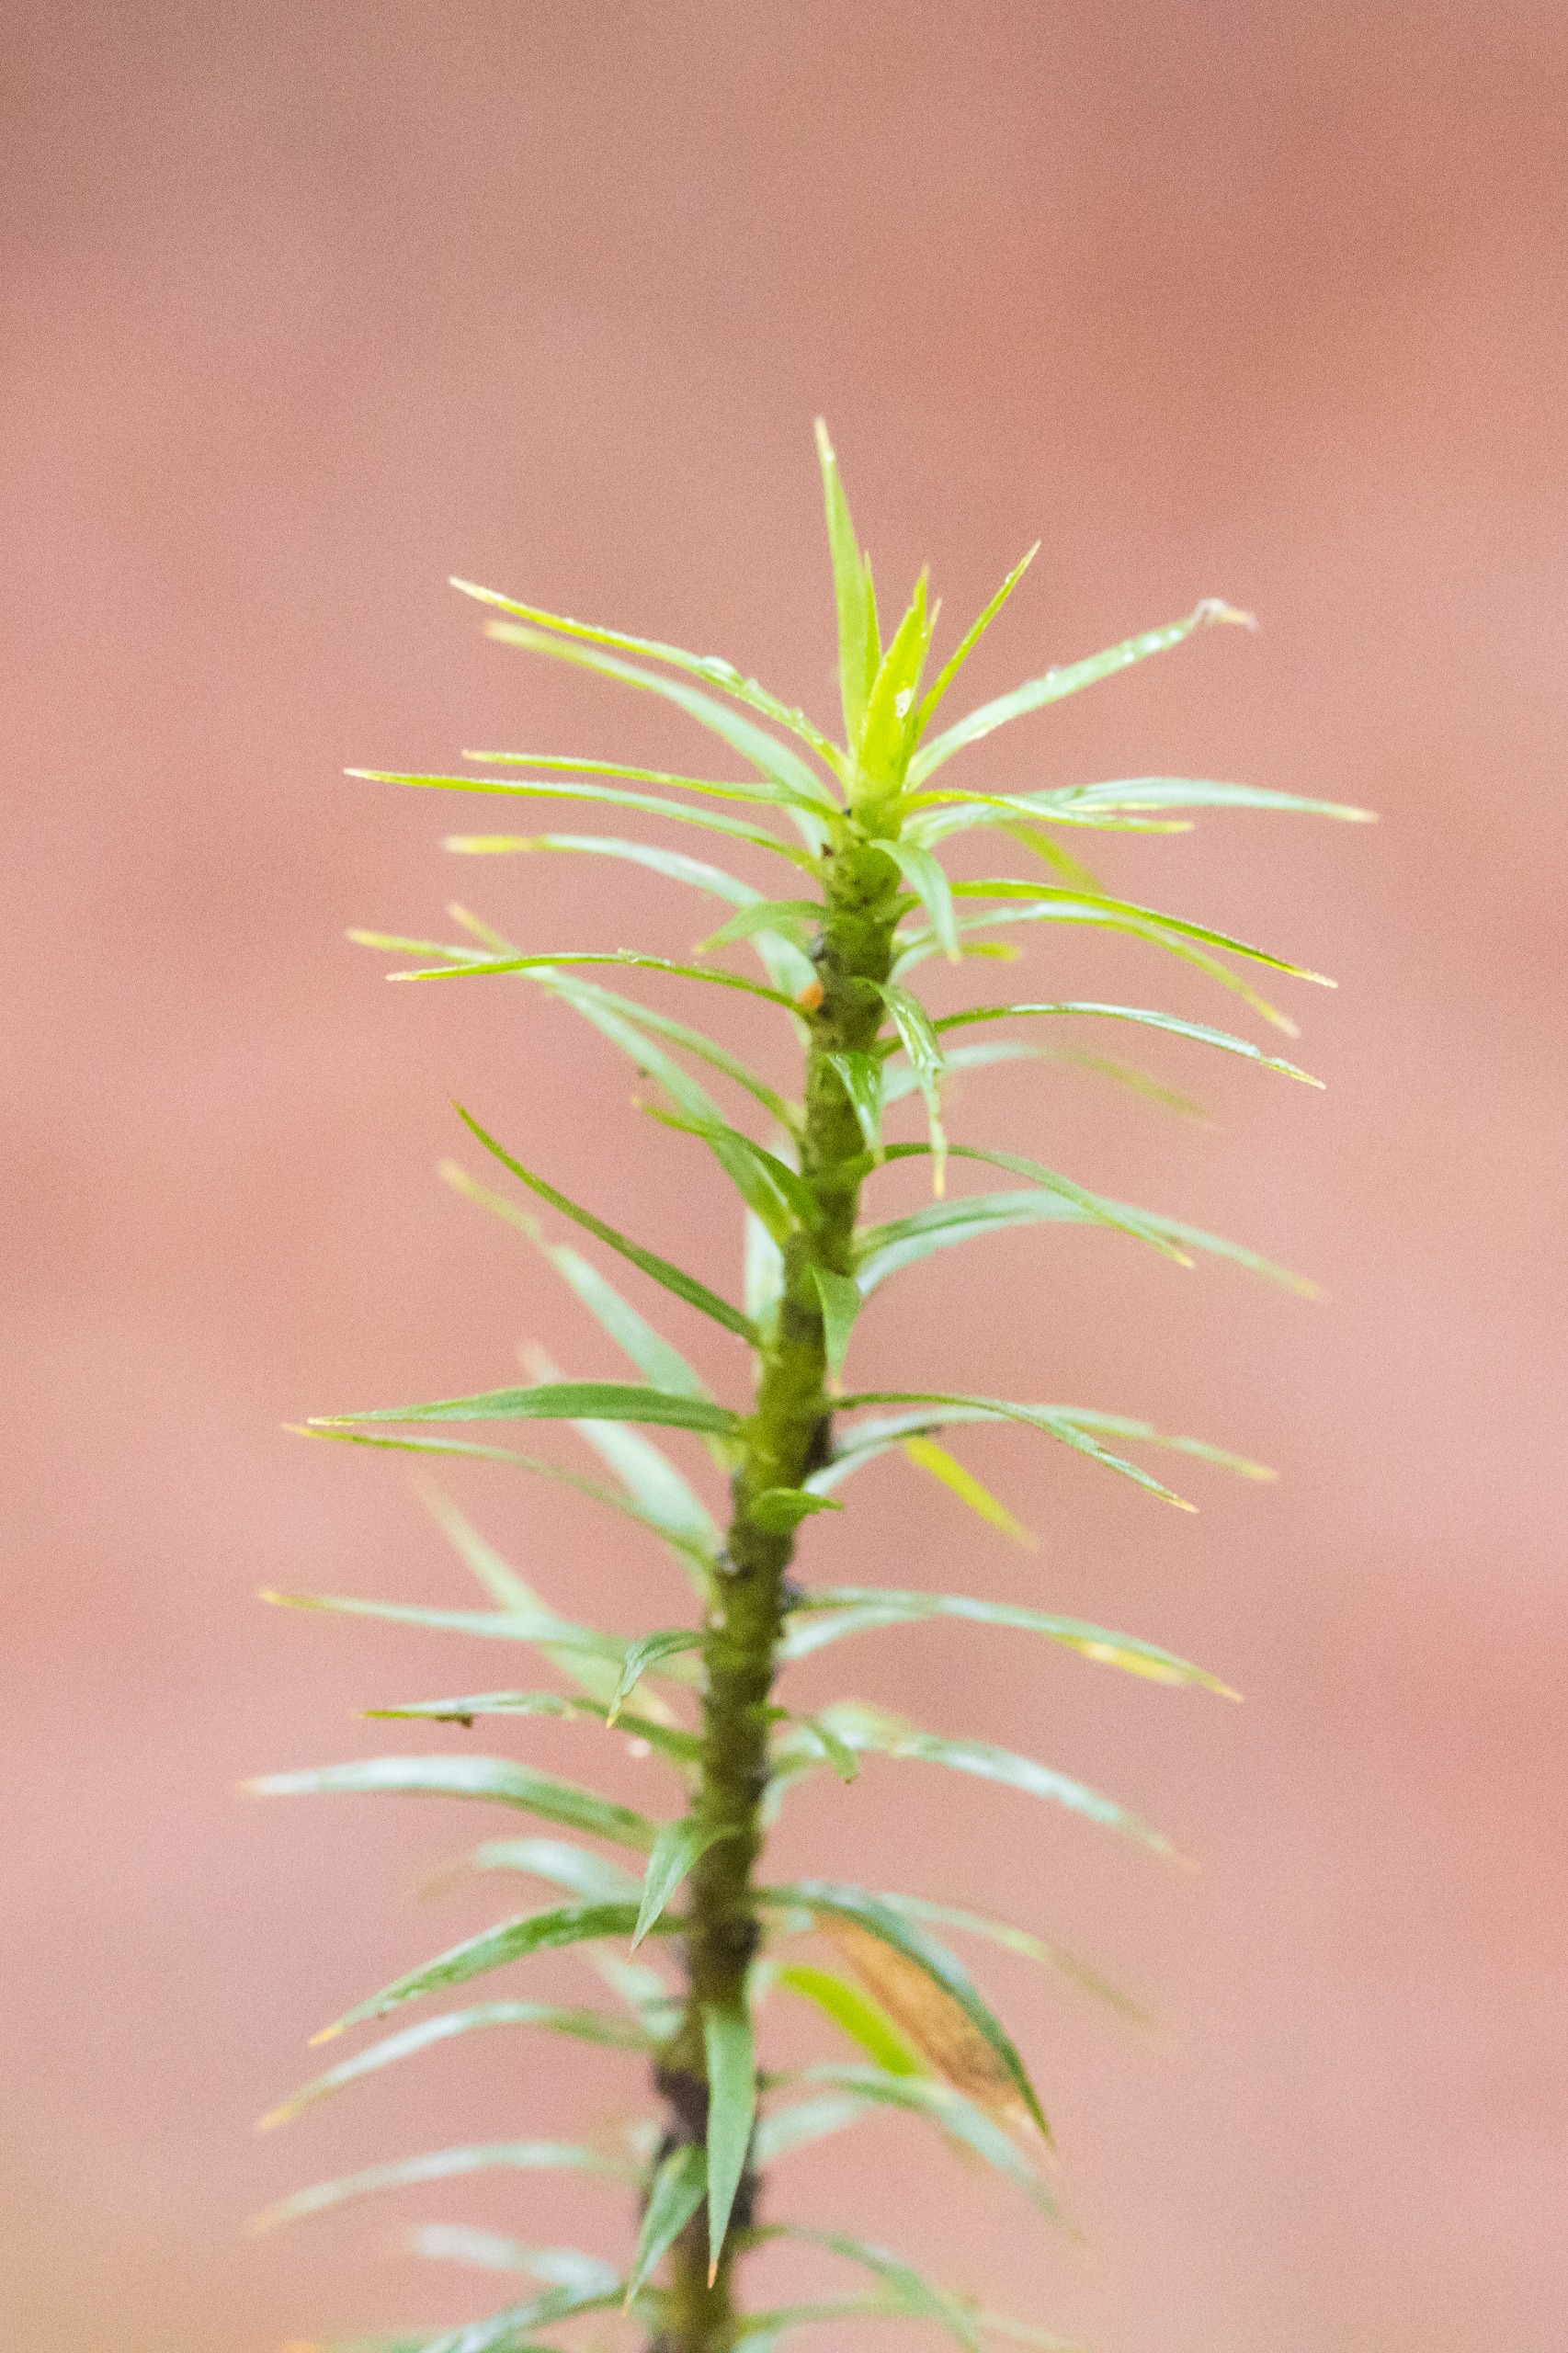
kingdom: Plantae
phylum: Bryophyta
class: Polytrichopsida
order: Polytrichales
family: Polytrichaceae
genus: Polytrichum
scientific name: Polytrichum formosum
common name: Skov-jomfruhår
